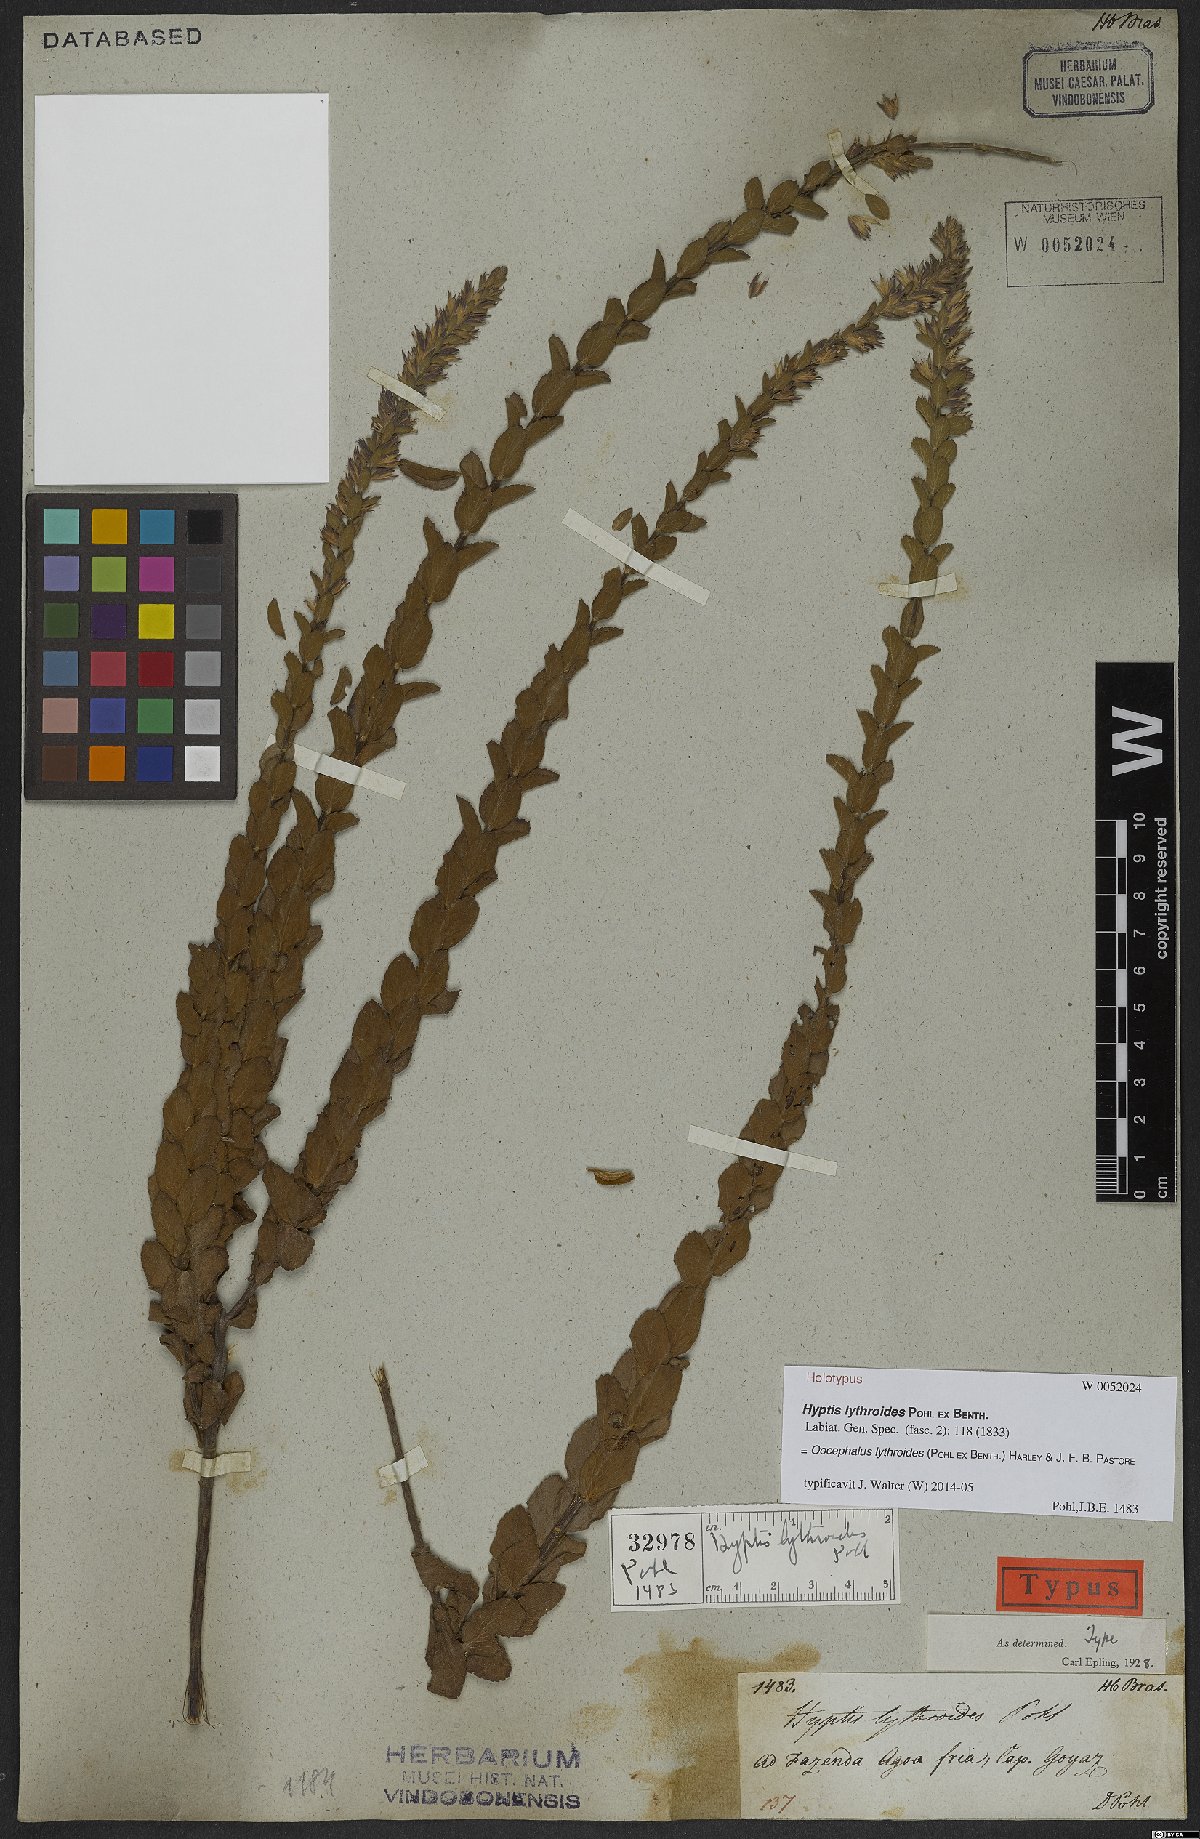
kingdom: Plantae
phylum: Tracheophyta
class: Magnoliopsida
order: Lamiales
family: Lamiaceae
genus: Oocephalus
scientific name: Oocephalus lythroides
